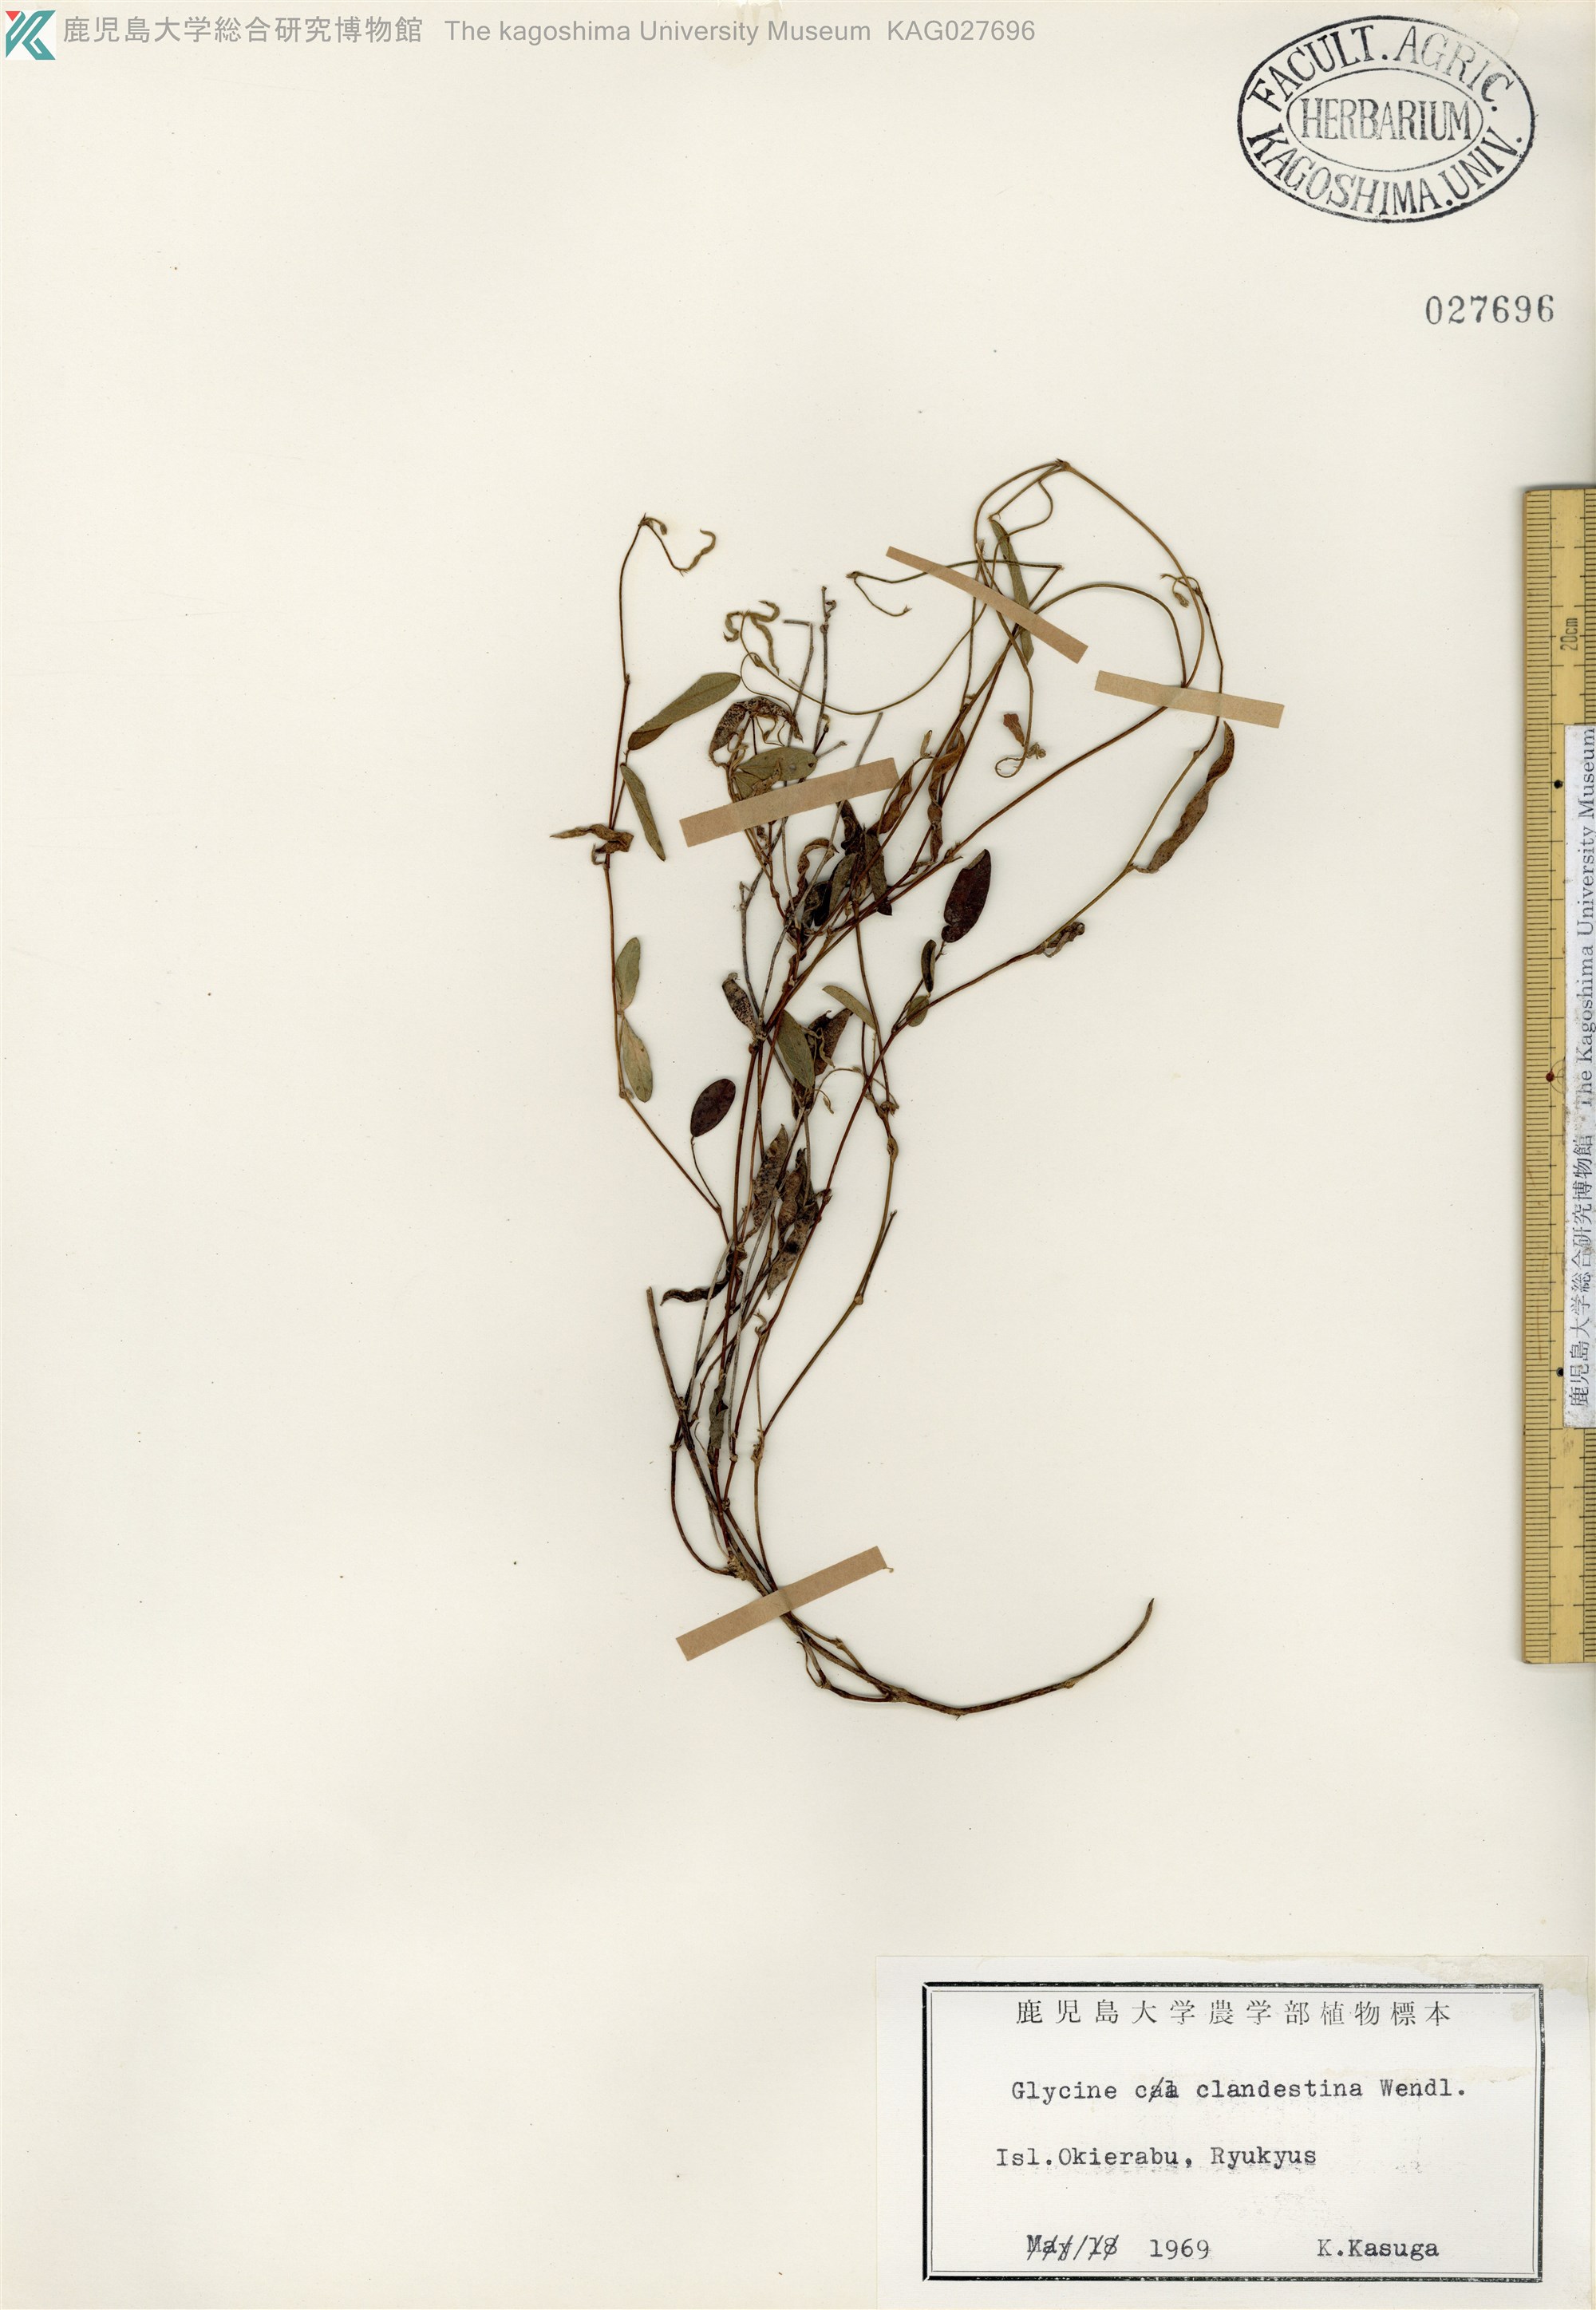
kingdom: Plantae
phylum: Tracheophyta
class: Magnoliopsida
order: Fabales
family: Fabaceae
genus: Glycine
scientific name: Glycine tabacina
